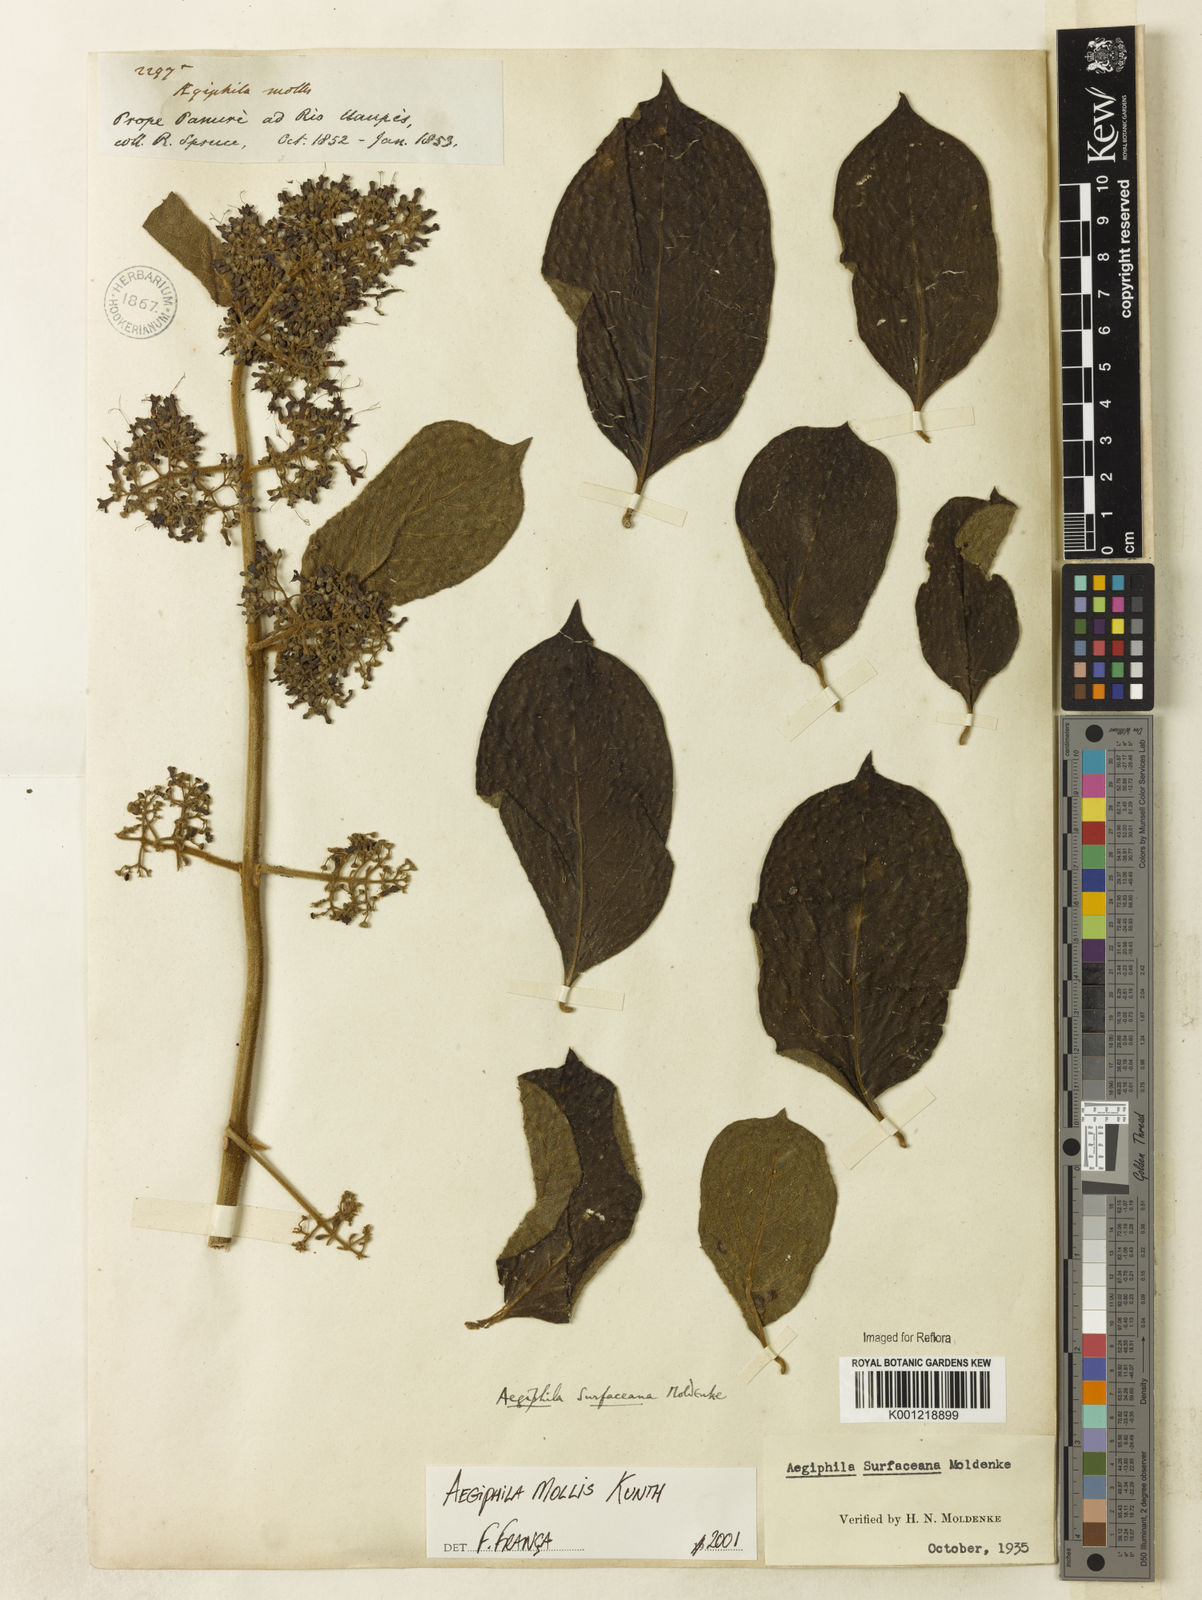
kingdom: Plantae
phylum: Tracheophyta
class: Magnoliopsida
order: Lamiales
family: Lamiaceae
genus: Aegiphila
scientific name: Aegiphila mollis
